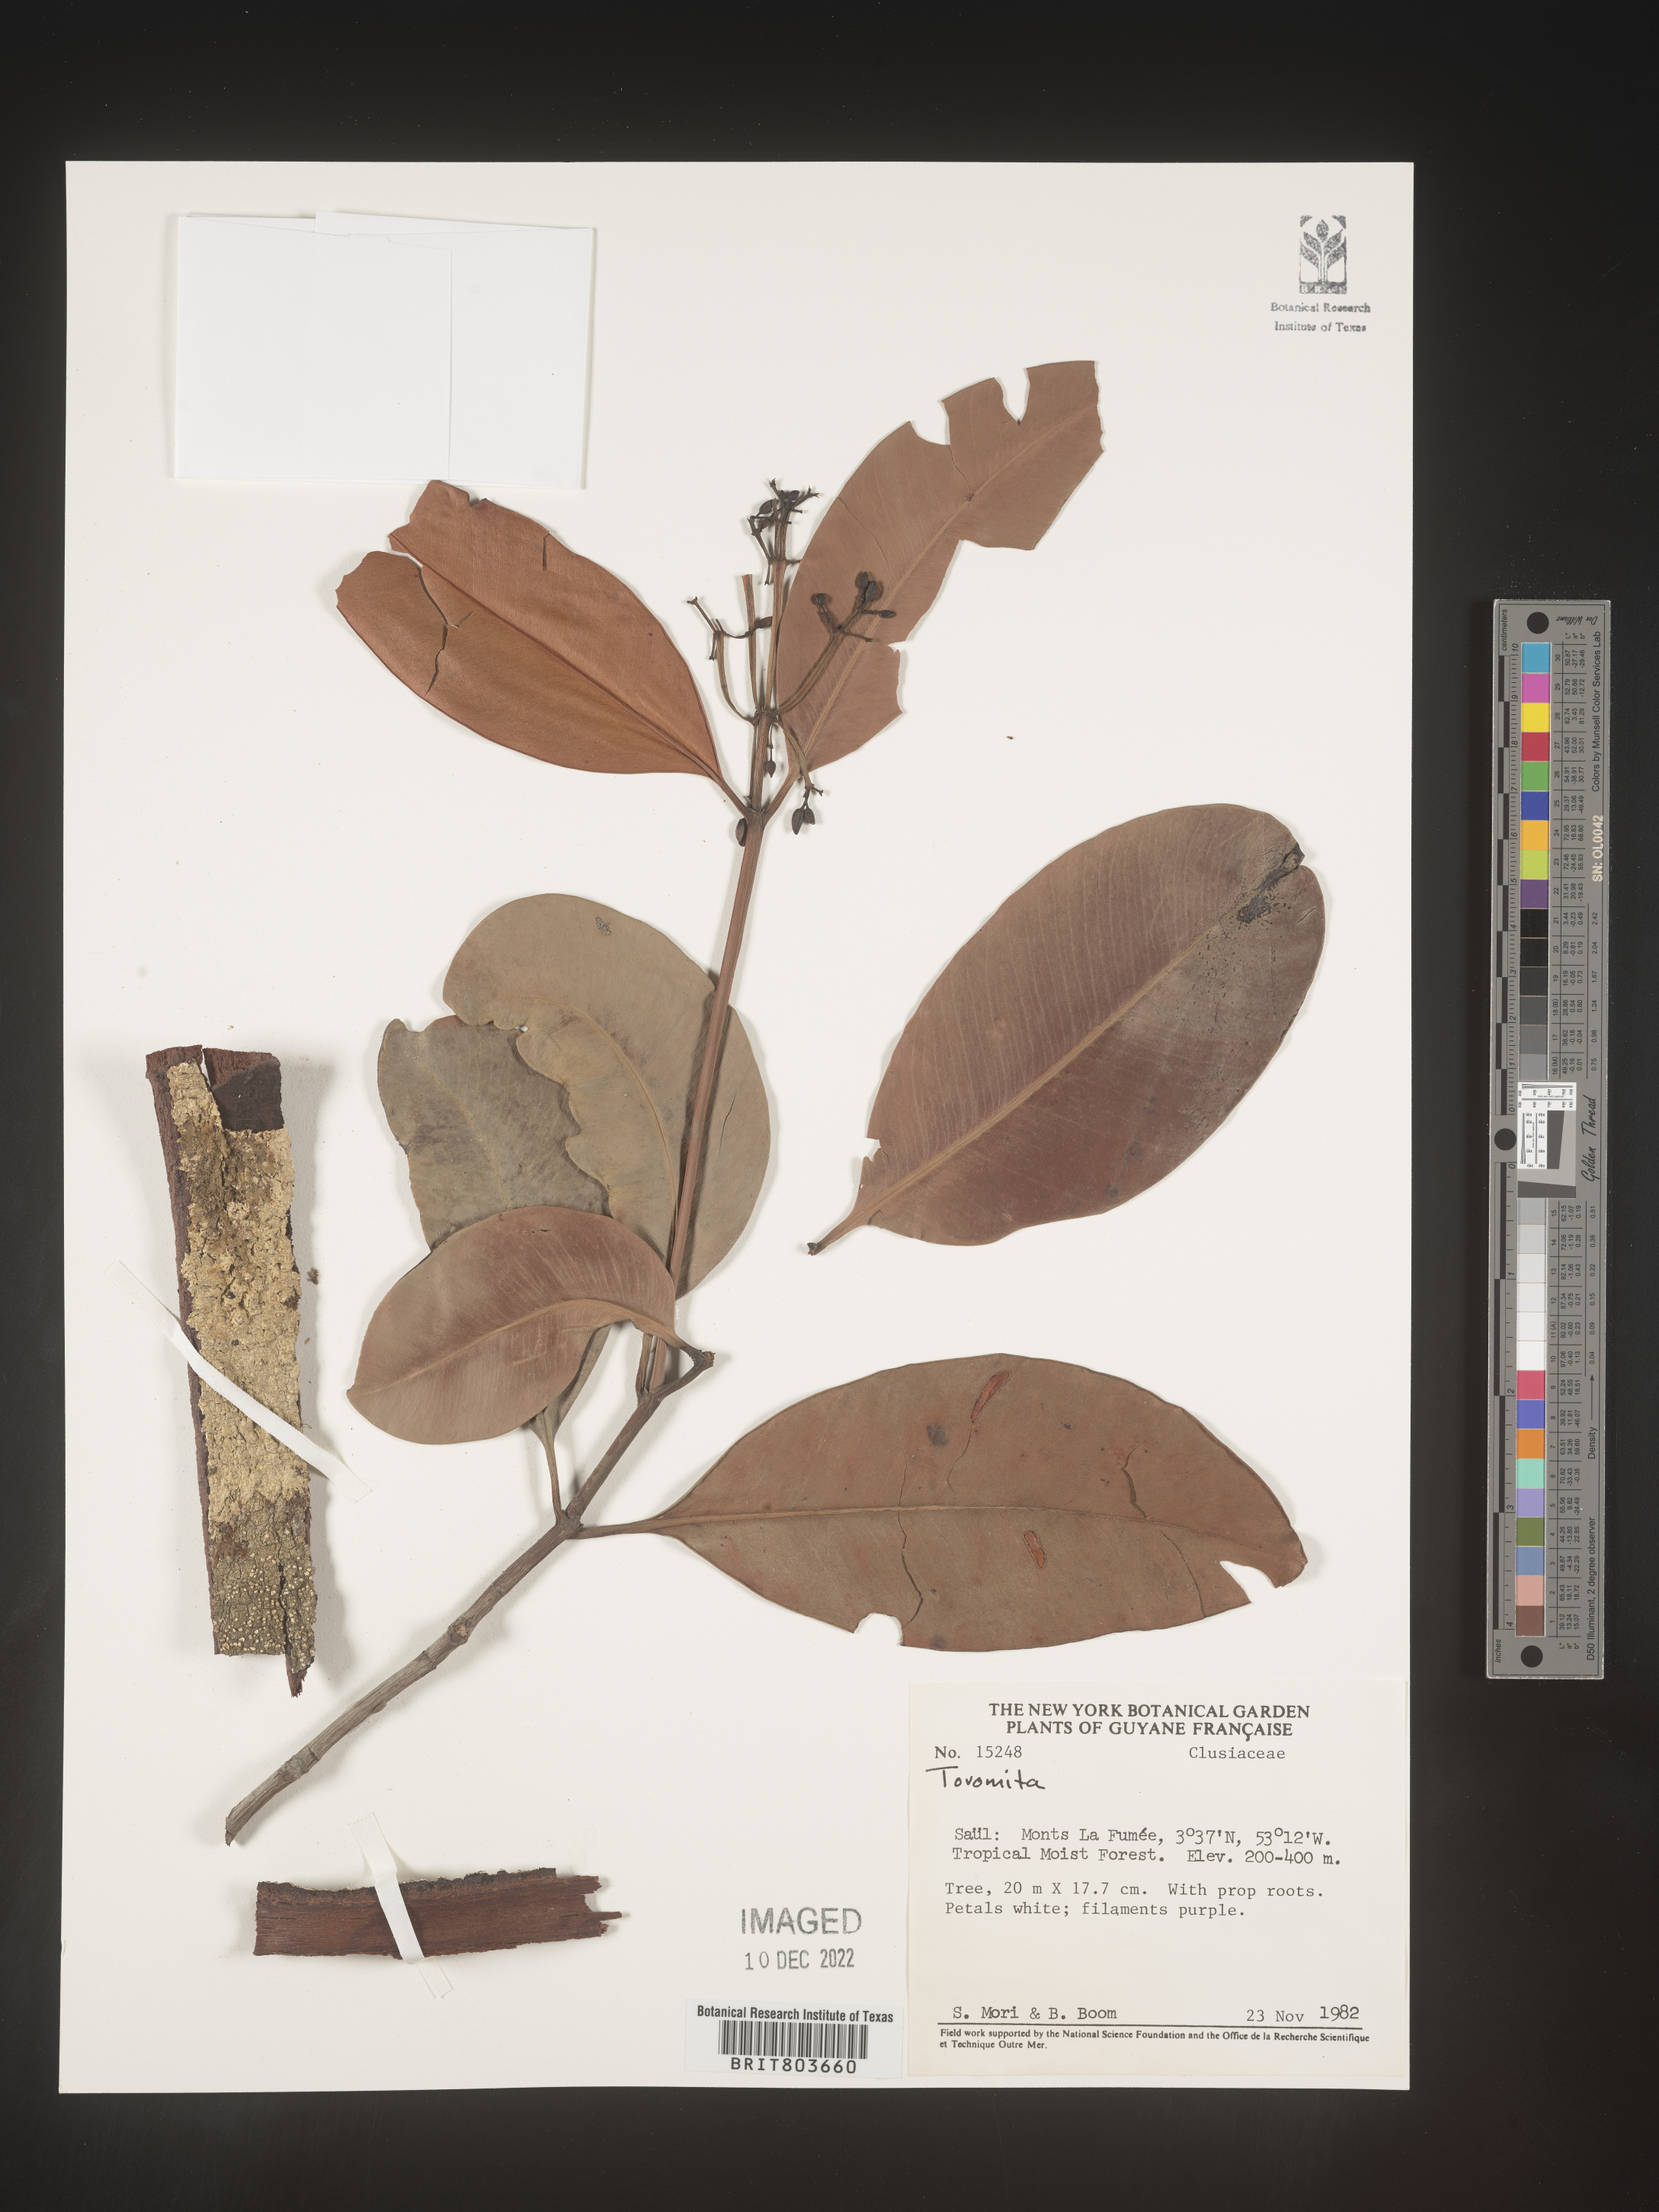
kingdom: Plantae
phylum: Tracheophyta
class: Magnoliopsida
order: Malpighiales
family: Clusiaceae
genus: Tovomita
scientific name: Tovomita
